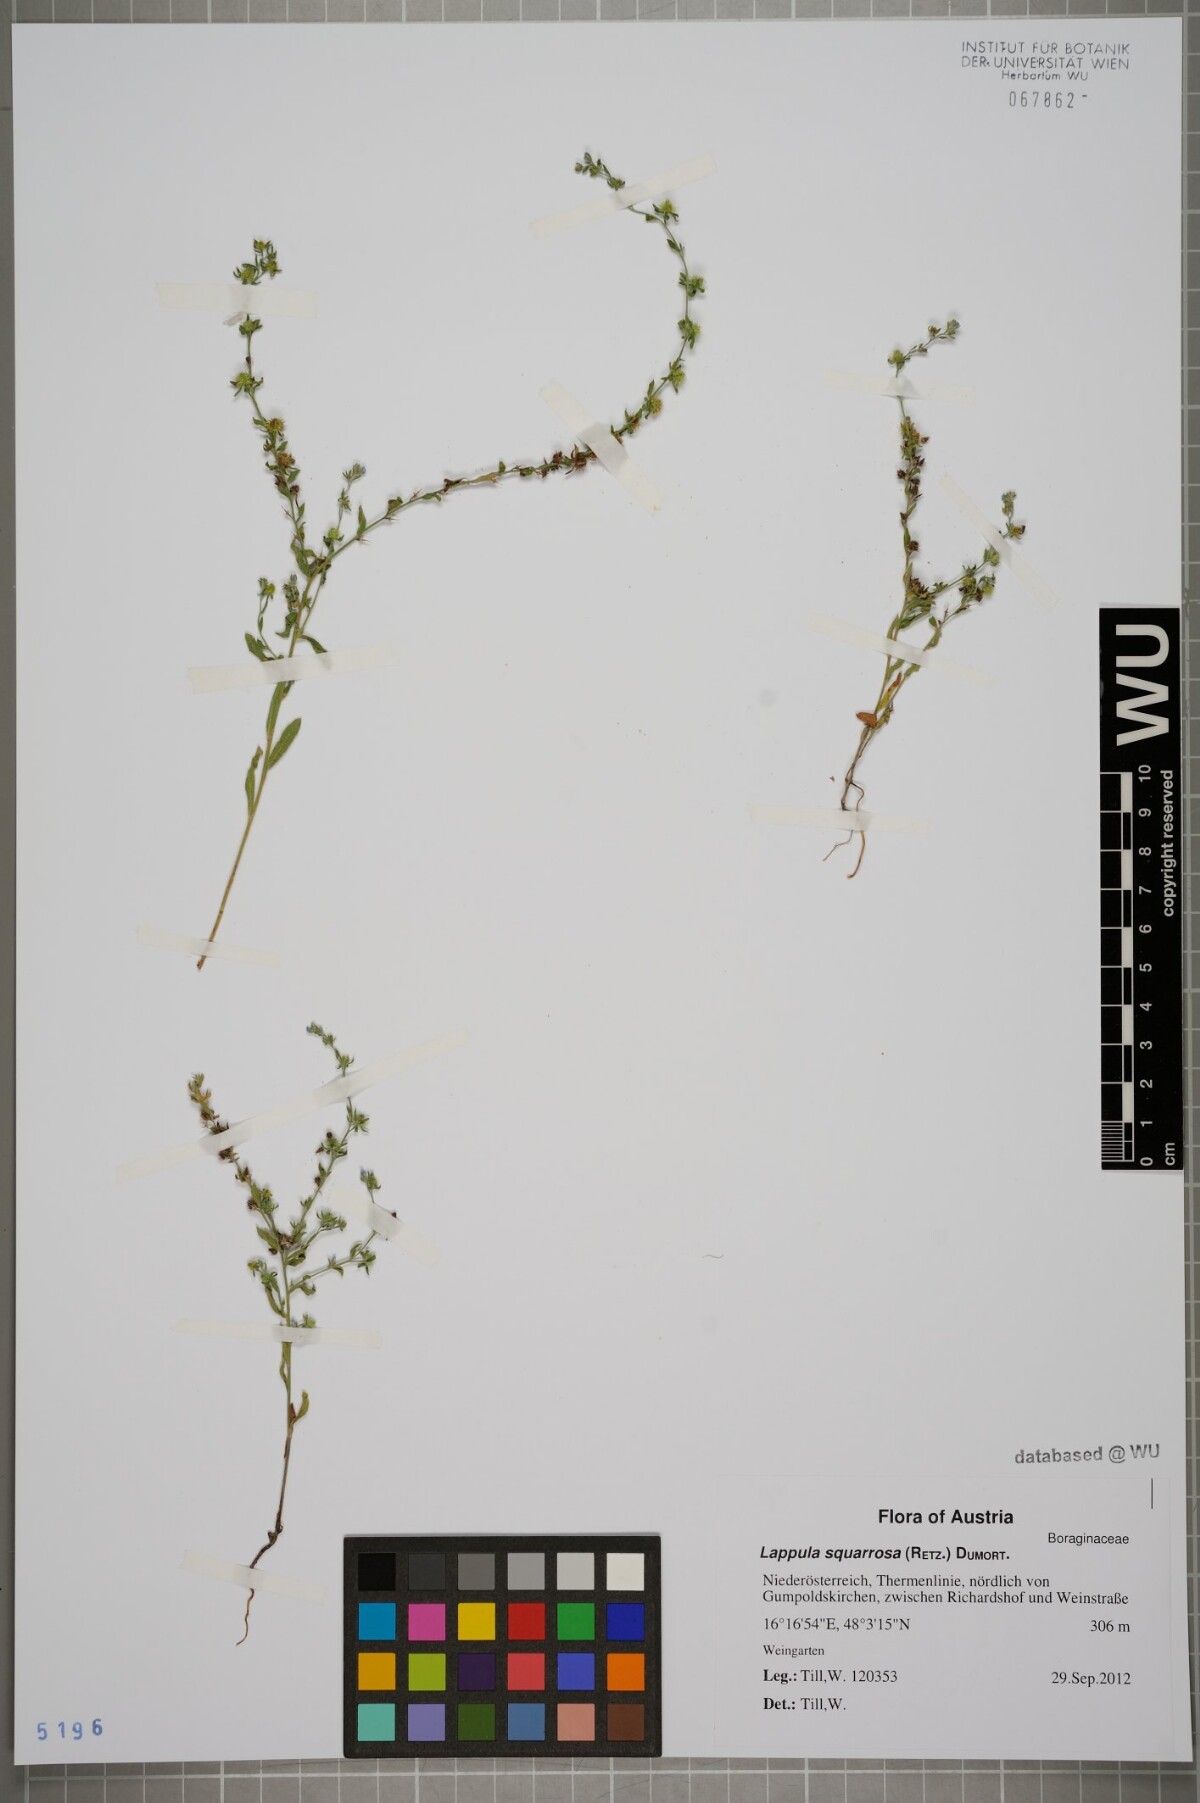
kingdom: Plantae
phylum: Tracheophyta
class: Magnoliopsida
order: Boraginales
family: Boraginaceae
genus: Lappula
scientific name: Lappula squarrosa
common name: European stickseed
